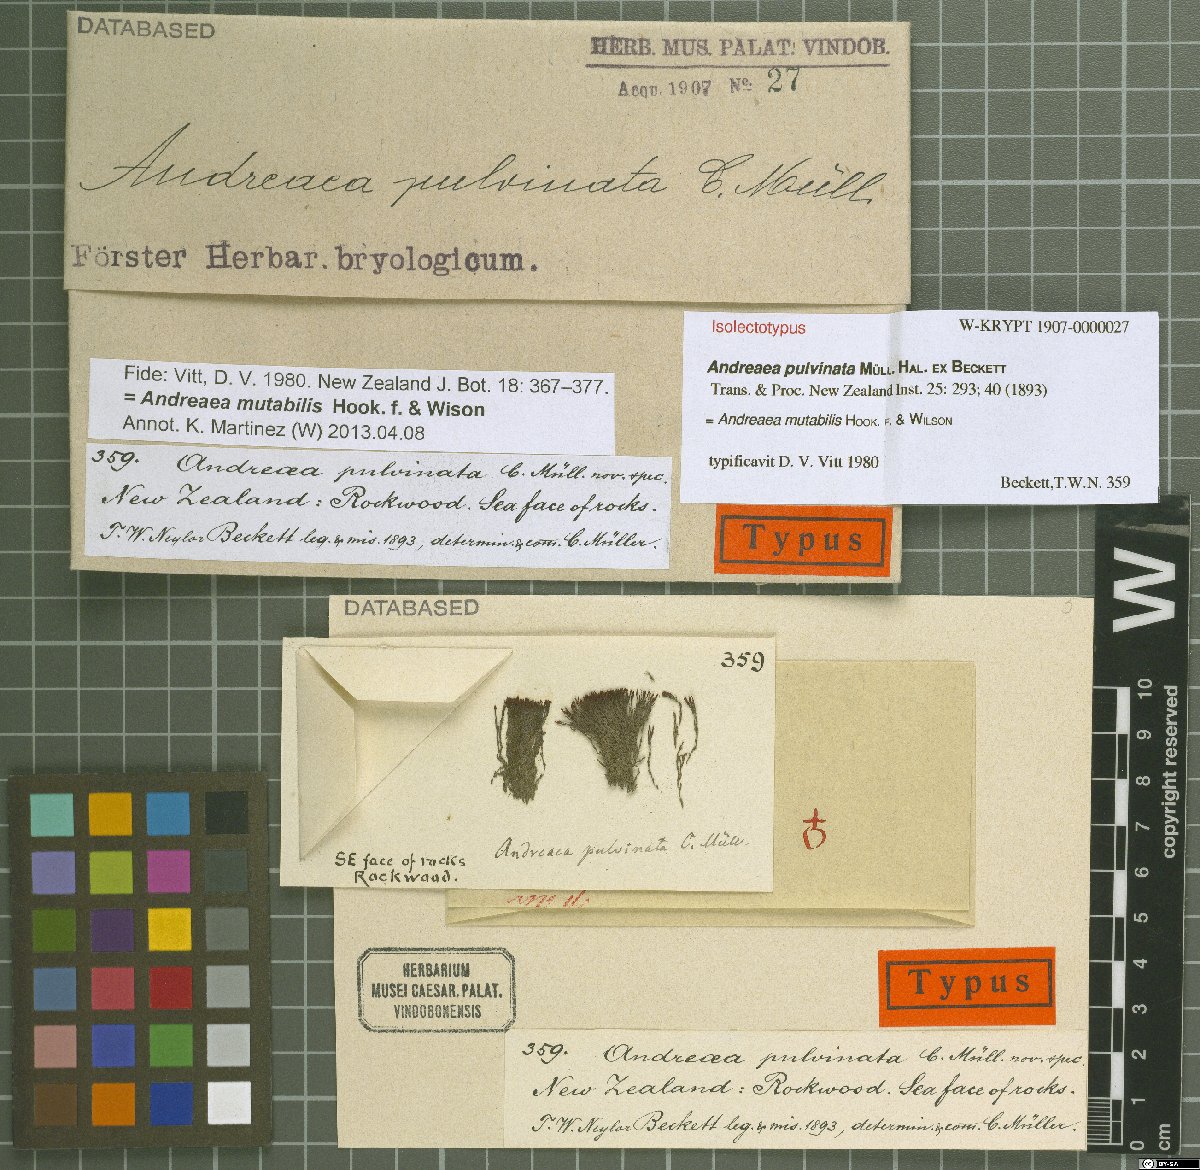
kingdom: Plantae
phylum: Bryophyta
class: Andreaeopsida
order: Andreaeales
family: Andreaeaceae
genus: Andreaea
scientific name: Andreaea mutabilis
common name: Changeable rock-moss
